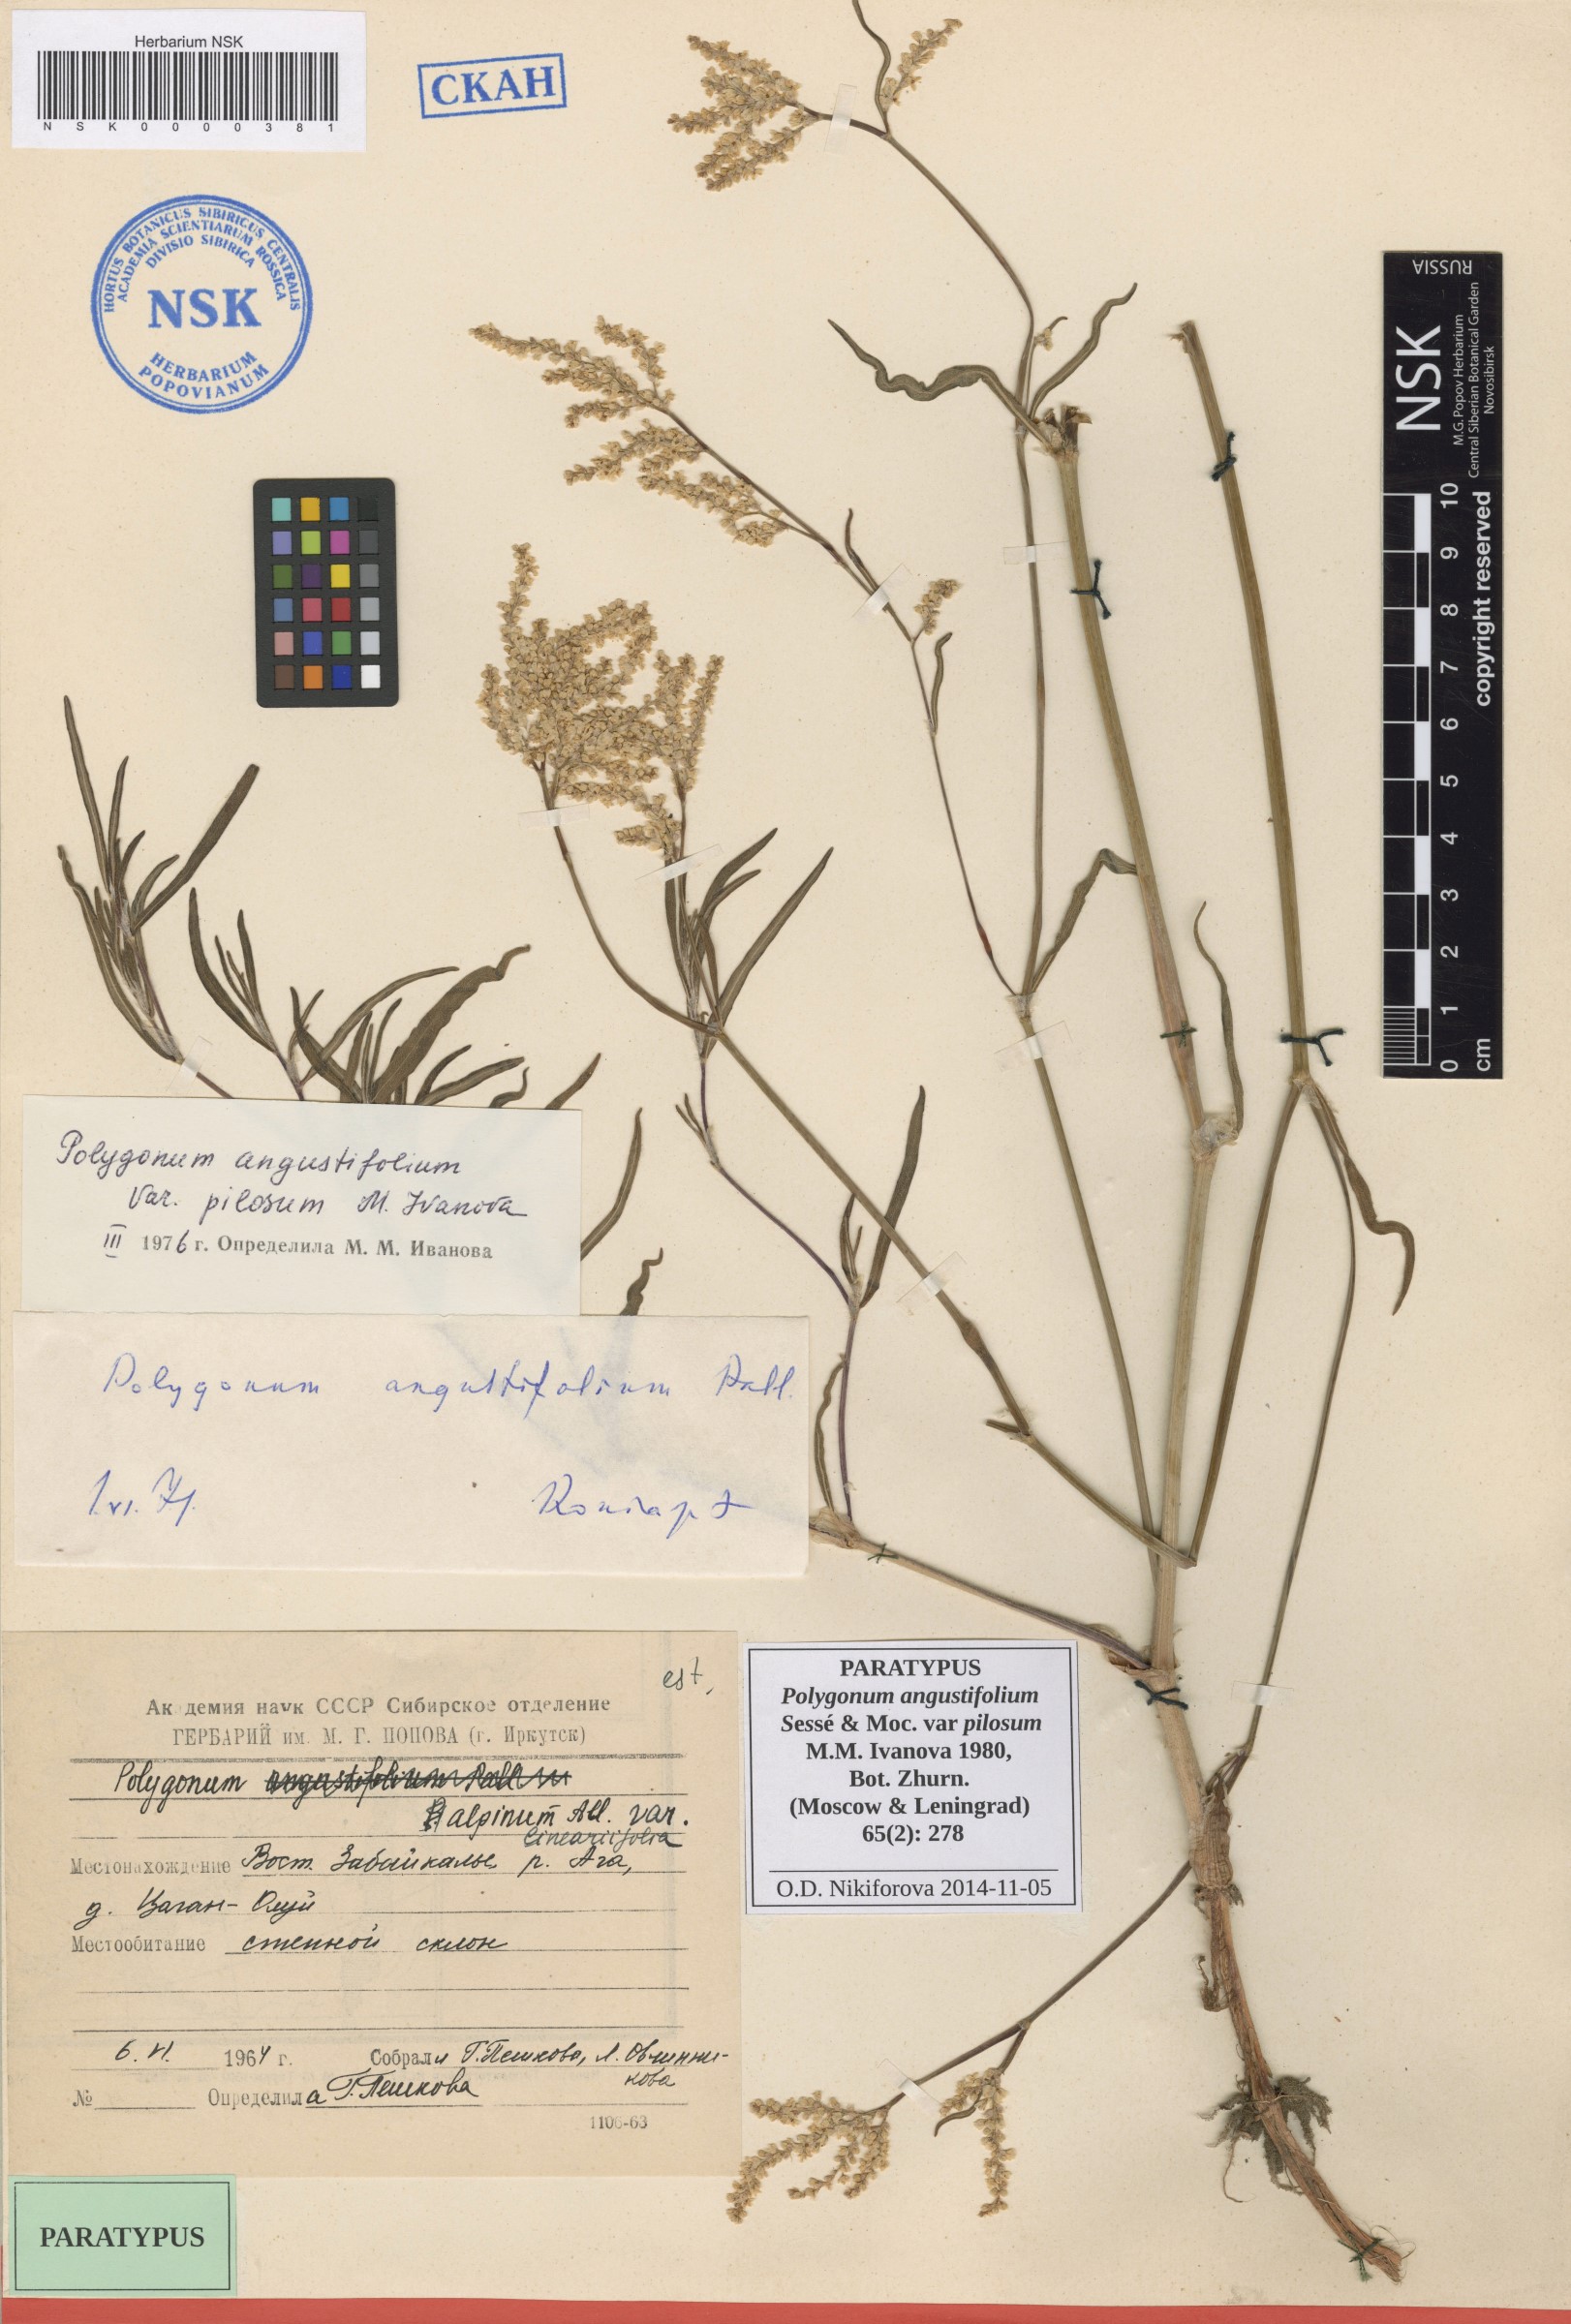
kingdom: Plantae
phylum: Tracheophyta
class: Magnoliopsida
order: Caryophyllales
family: Polygonaceae
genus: Persicaria
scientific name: Persicaria angustifolia
